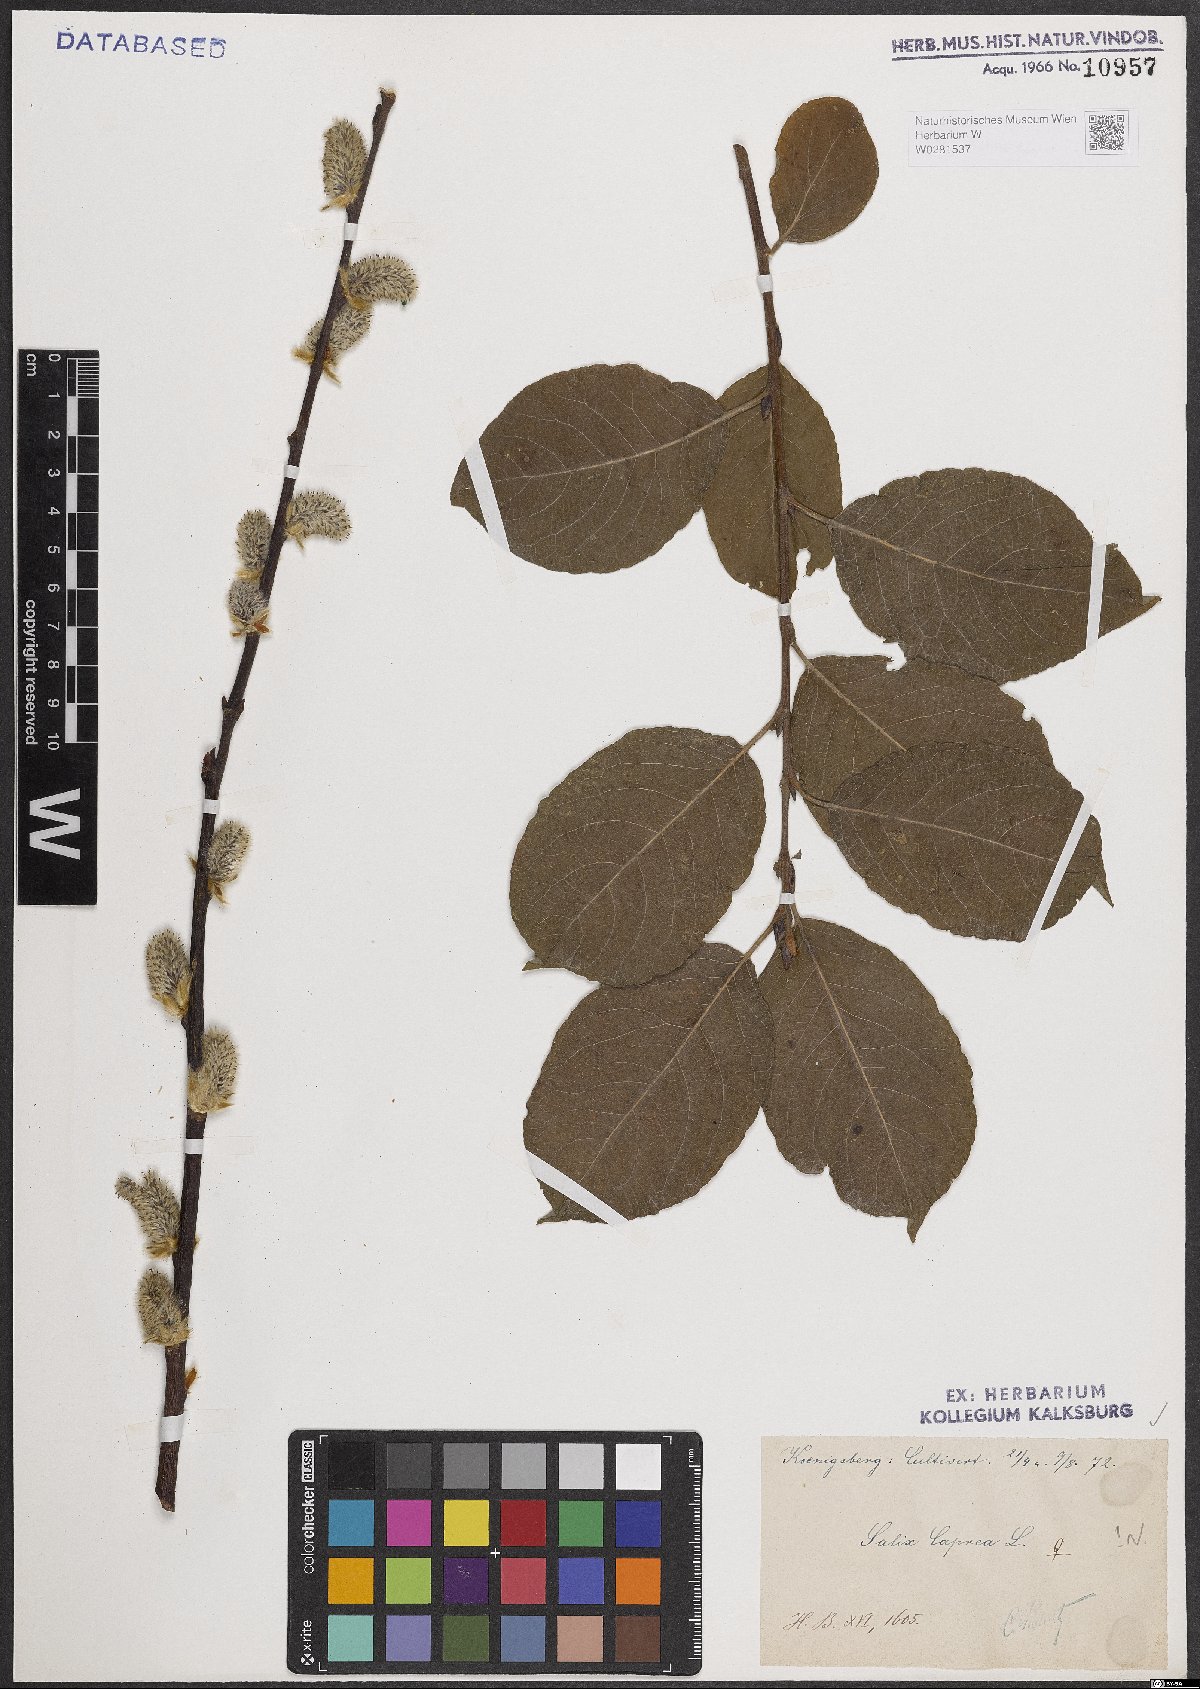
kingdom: Plantae
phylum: Tracheophyta
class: Magnoliopsida
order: Malpighiales
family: Salicaceae
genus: Salix
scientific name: Salix caprea
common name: Goat willow
